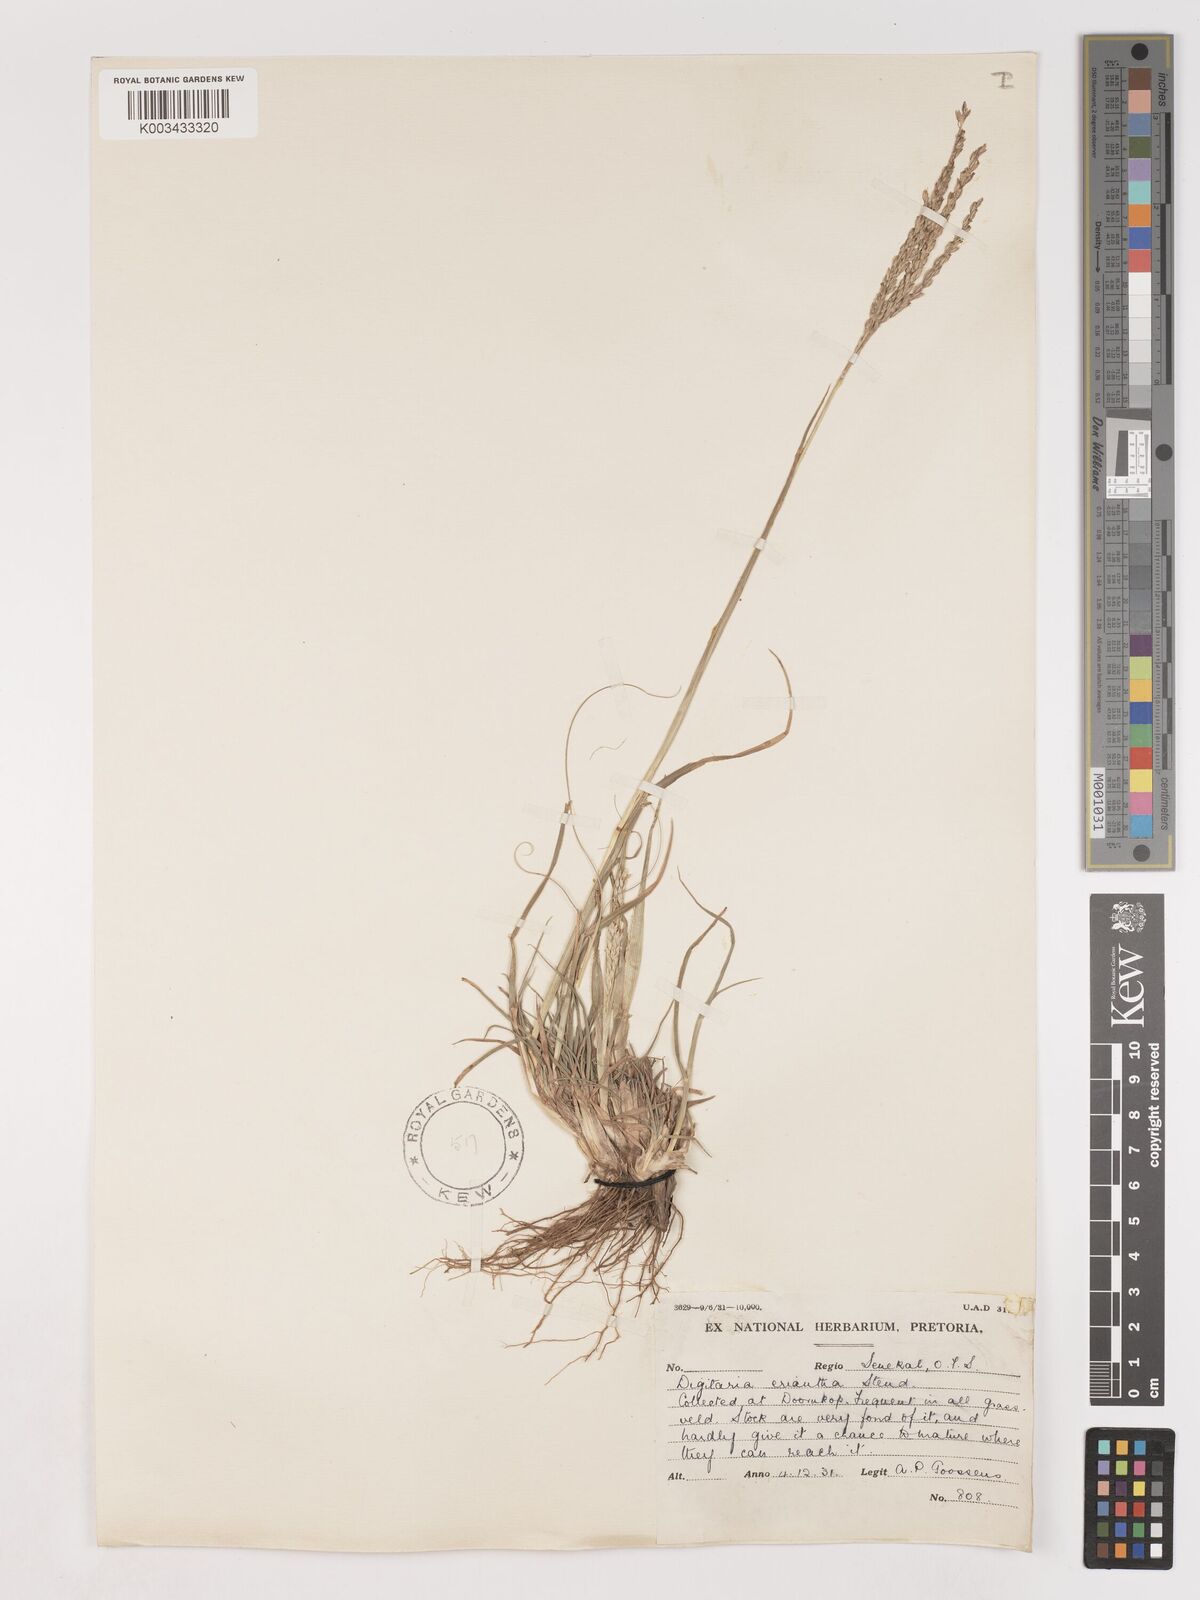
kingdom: Plantae
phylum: Tracheophyta
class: Liliopsida
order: Poales
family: Poaceae
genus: Digitaria
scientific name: Digitaria eriantha
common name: Digitgrass
